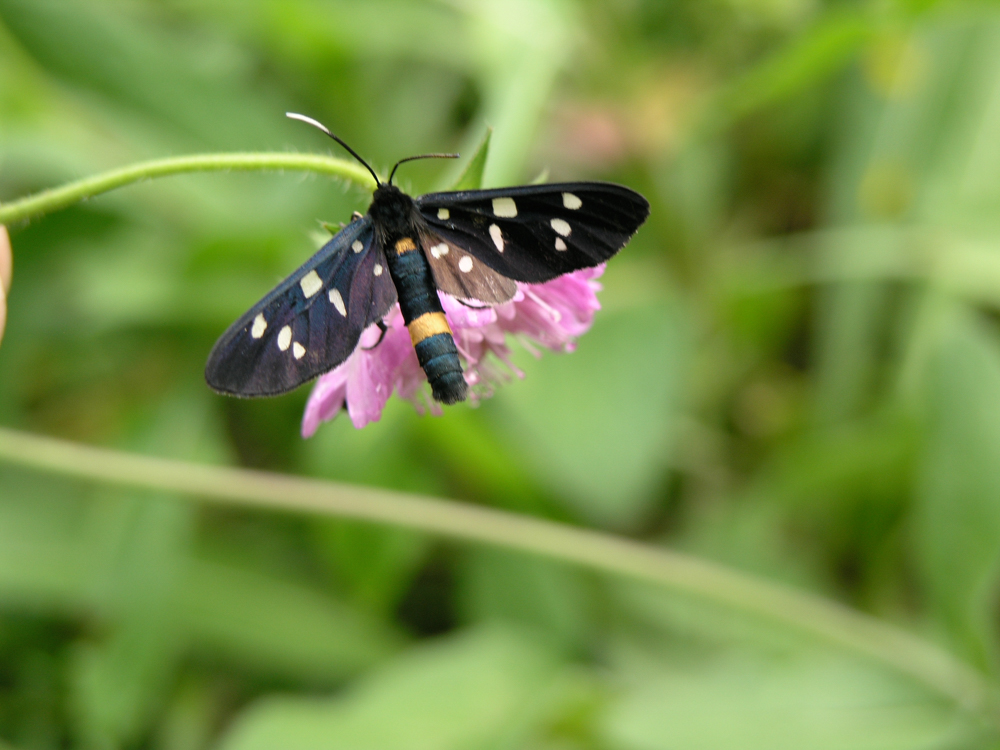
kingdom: Animalia
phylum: Arthropoda
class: Insecta
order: Lepidoptera
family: Erebidae
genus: Amata
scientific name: Amata phegea
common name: Nine-spotted
